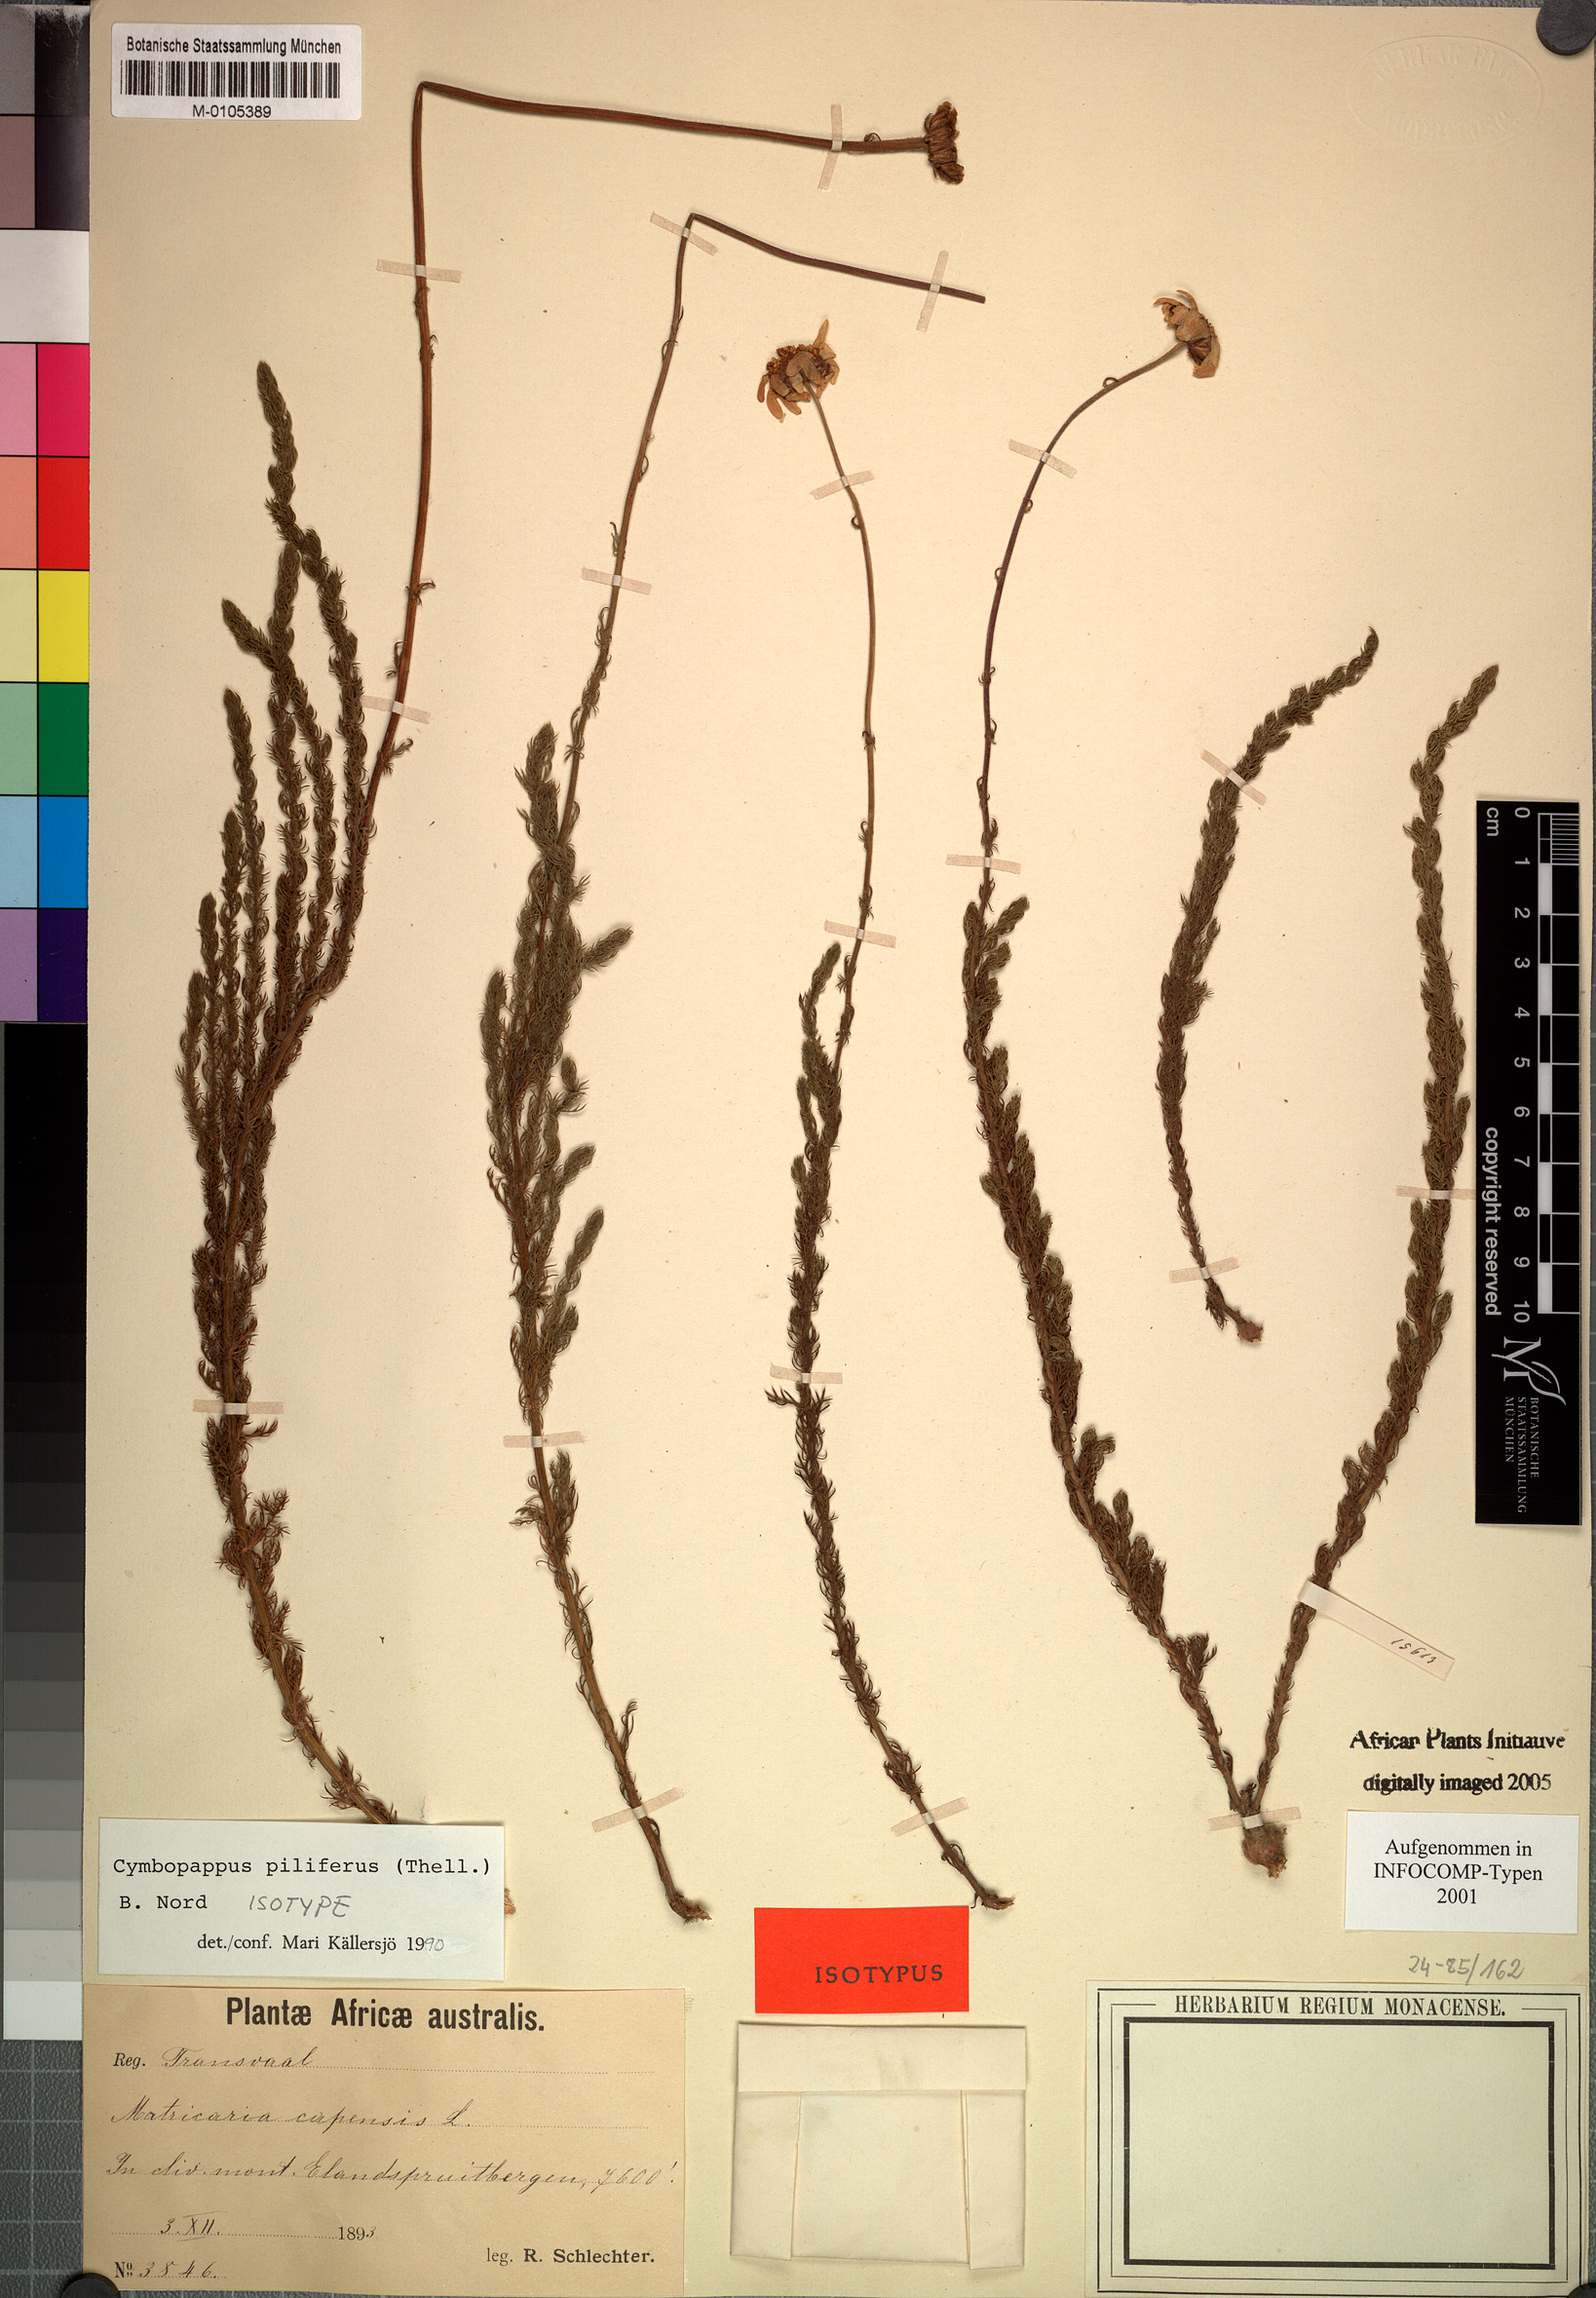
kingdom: Plantae
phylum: Tracheophyta
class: Magnoliopsida
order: Asterales
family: Asteraceae
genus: Cymbopappus
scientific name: Cymbopappus piliferus
